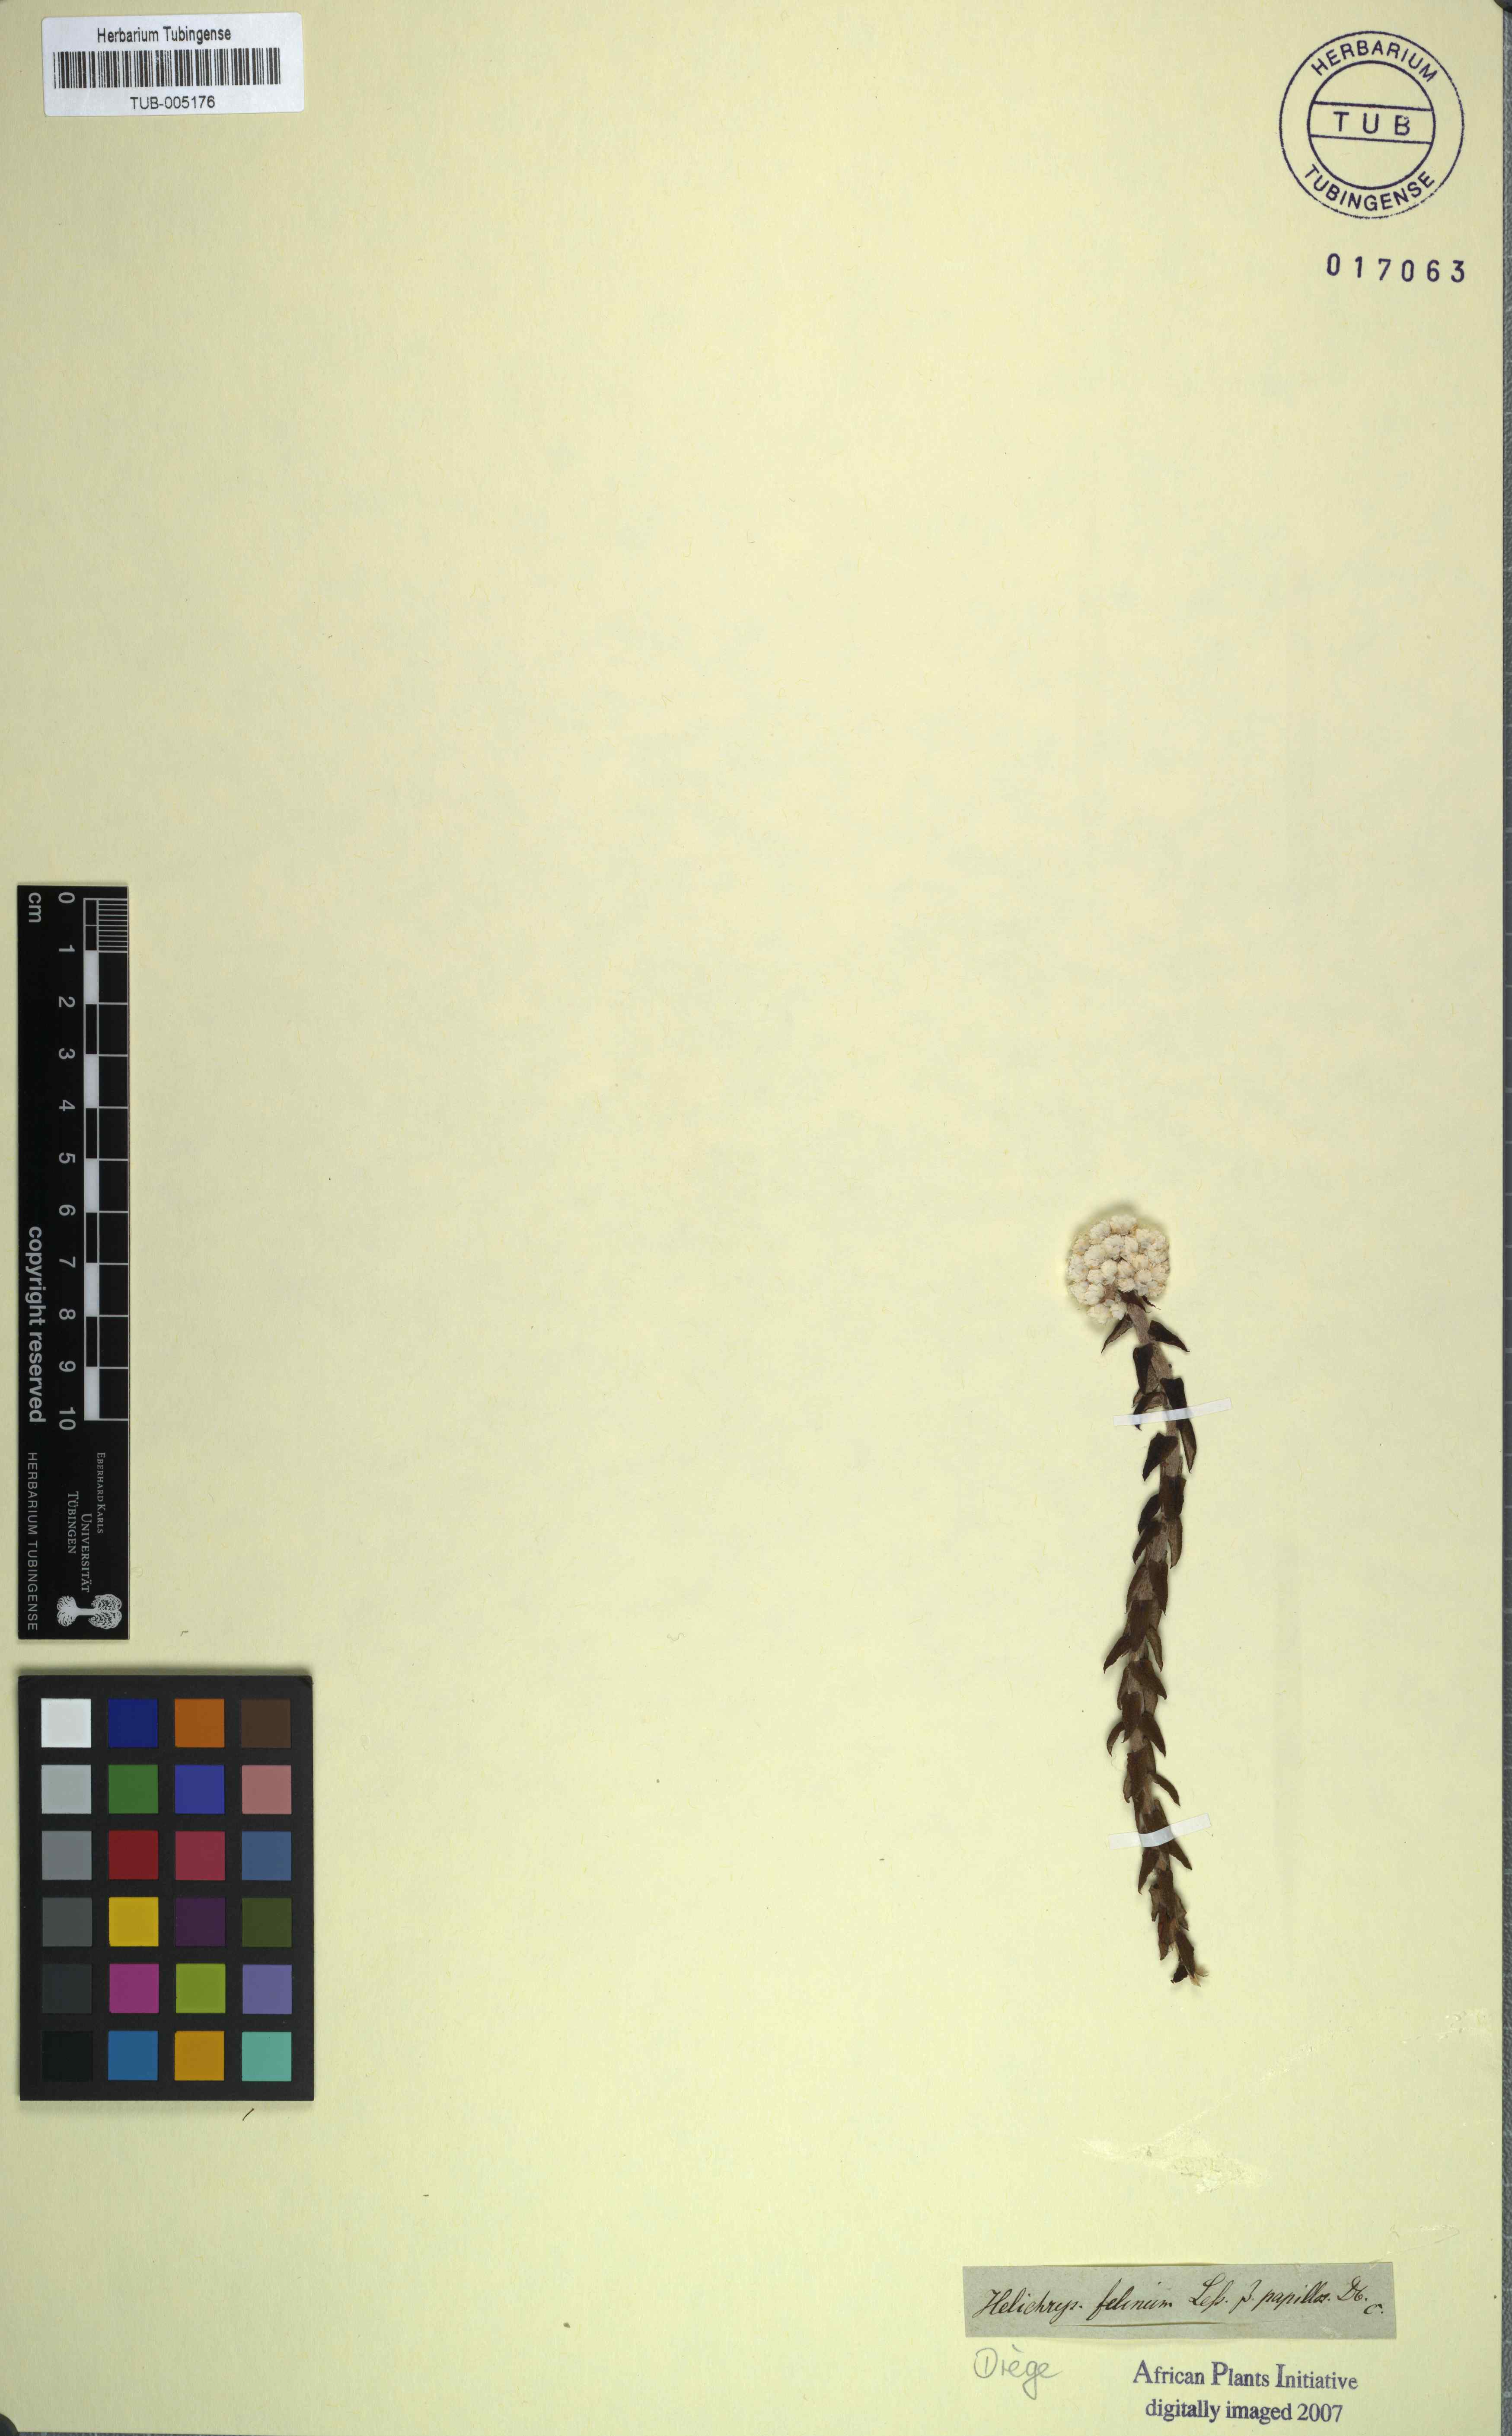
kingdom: Plantae
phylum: Tracheophyta
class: Magnoliopsida
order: Asterales
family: Asteraceae
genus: Helichrysum
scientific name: Helichrysum felinum
